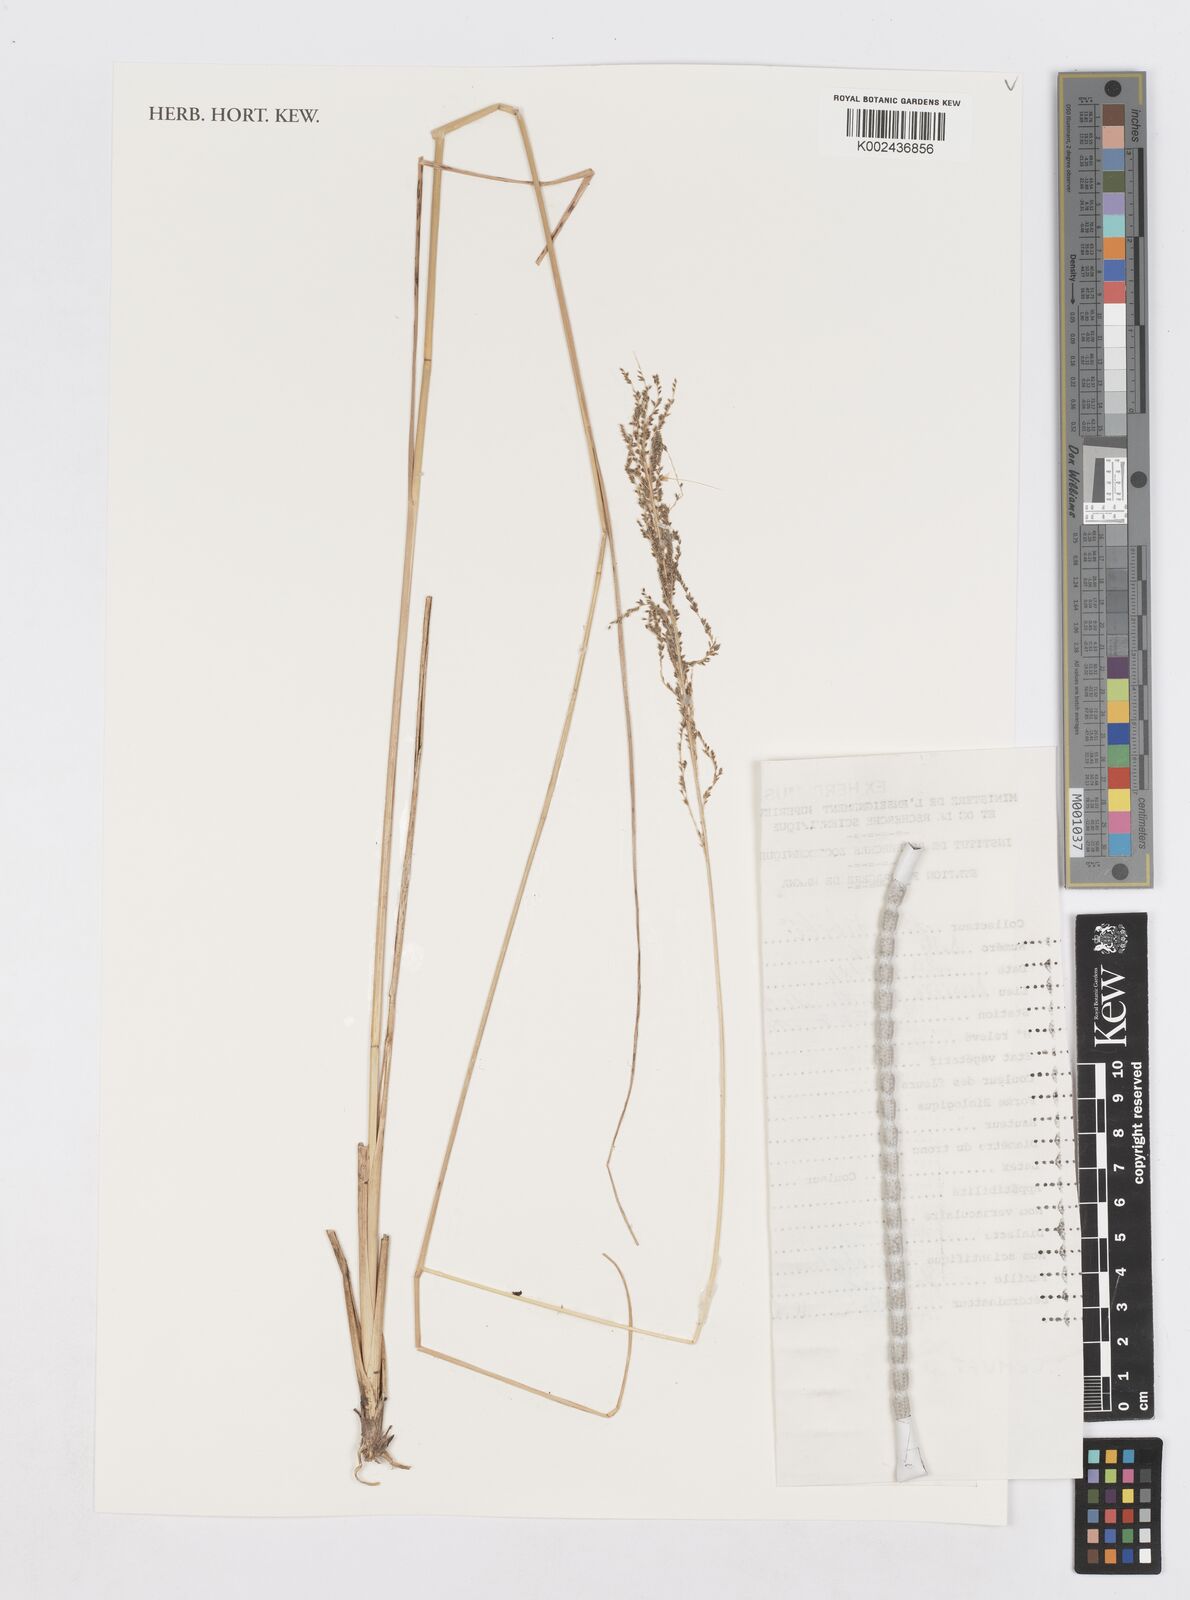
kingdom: Plantae
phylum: Tracheophyta
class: Liliopsida
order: Poales
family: Poaceae
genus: Sporobolus
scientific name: Sporobolus africanus
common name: African dropseed
